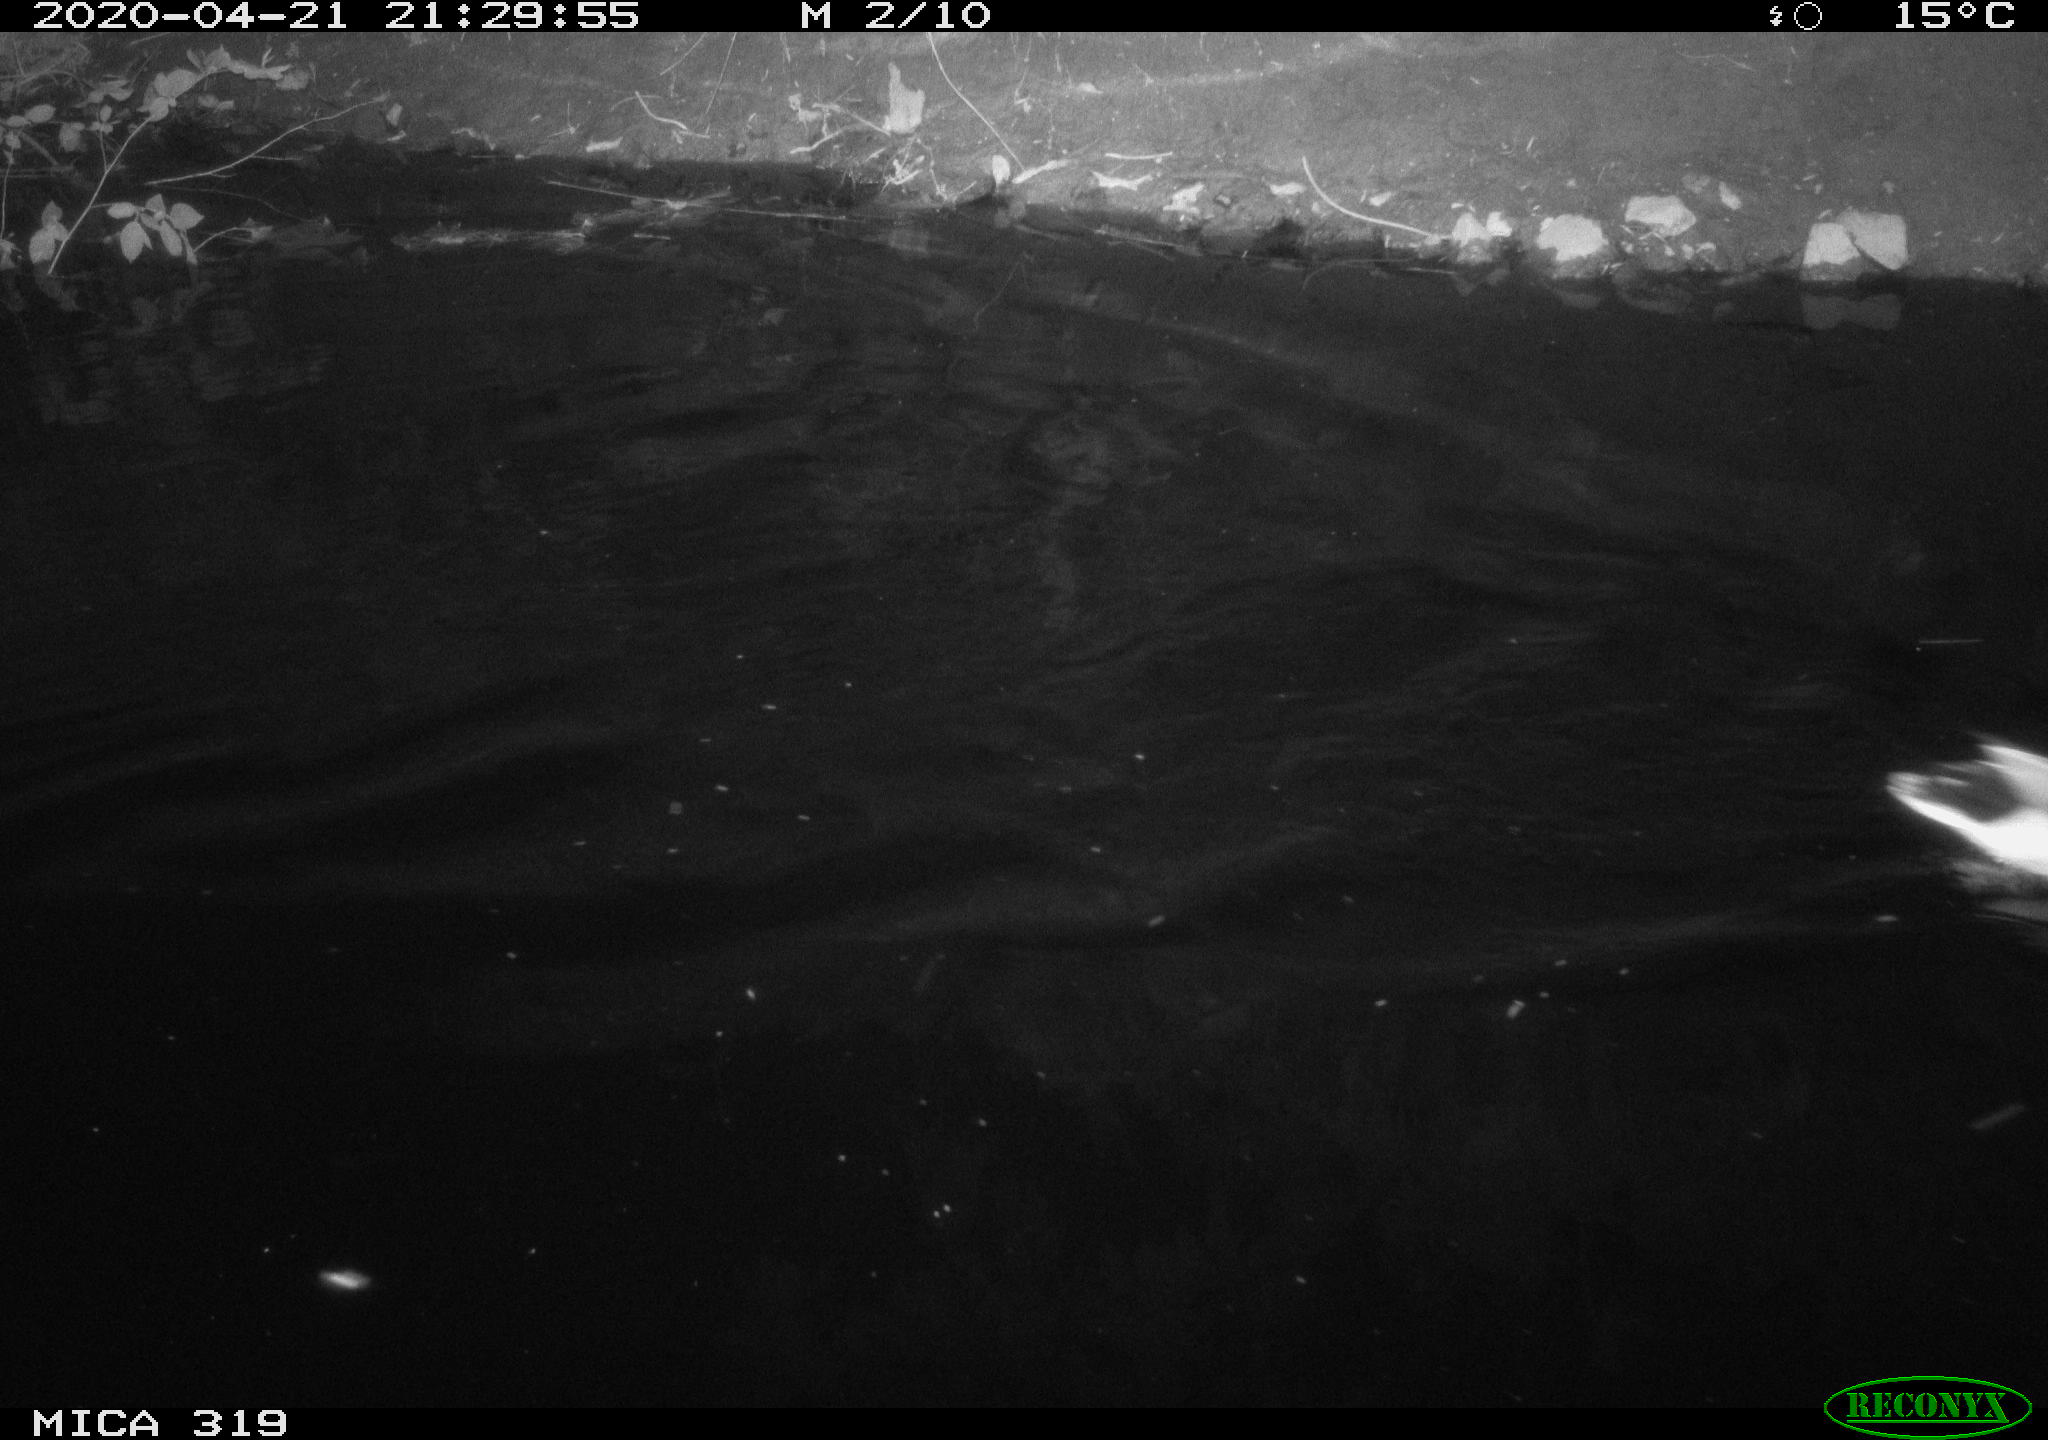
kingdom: Animalia
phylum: Chordata
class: Aves
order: Anseriformes
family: Anatidae
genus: Anas
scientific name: Anas platyrhynchos
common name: Mallard
